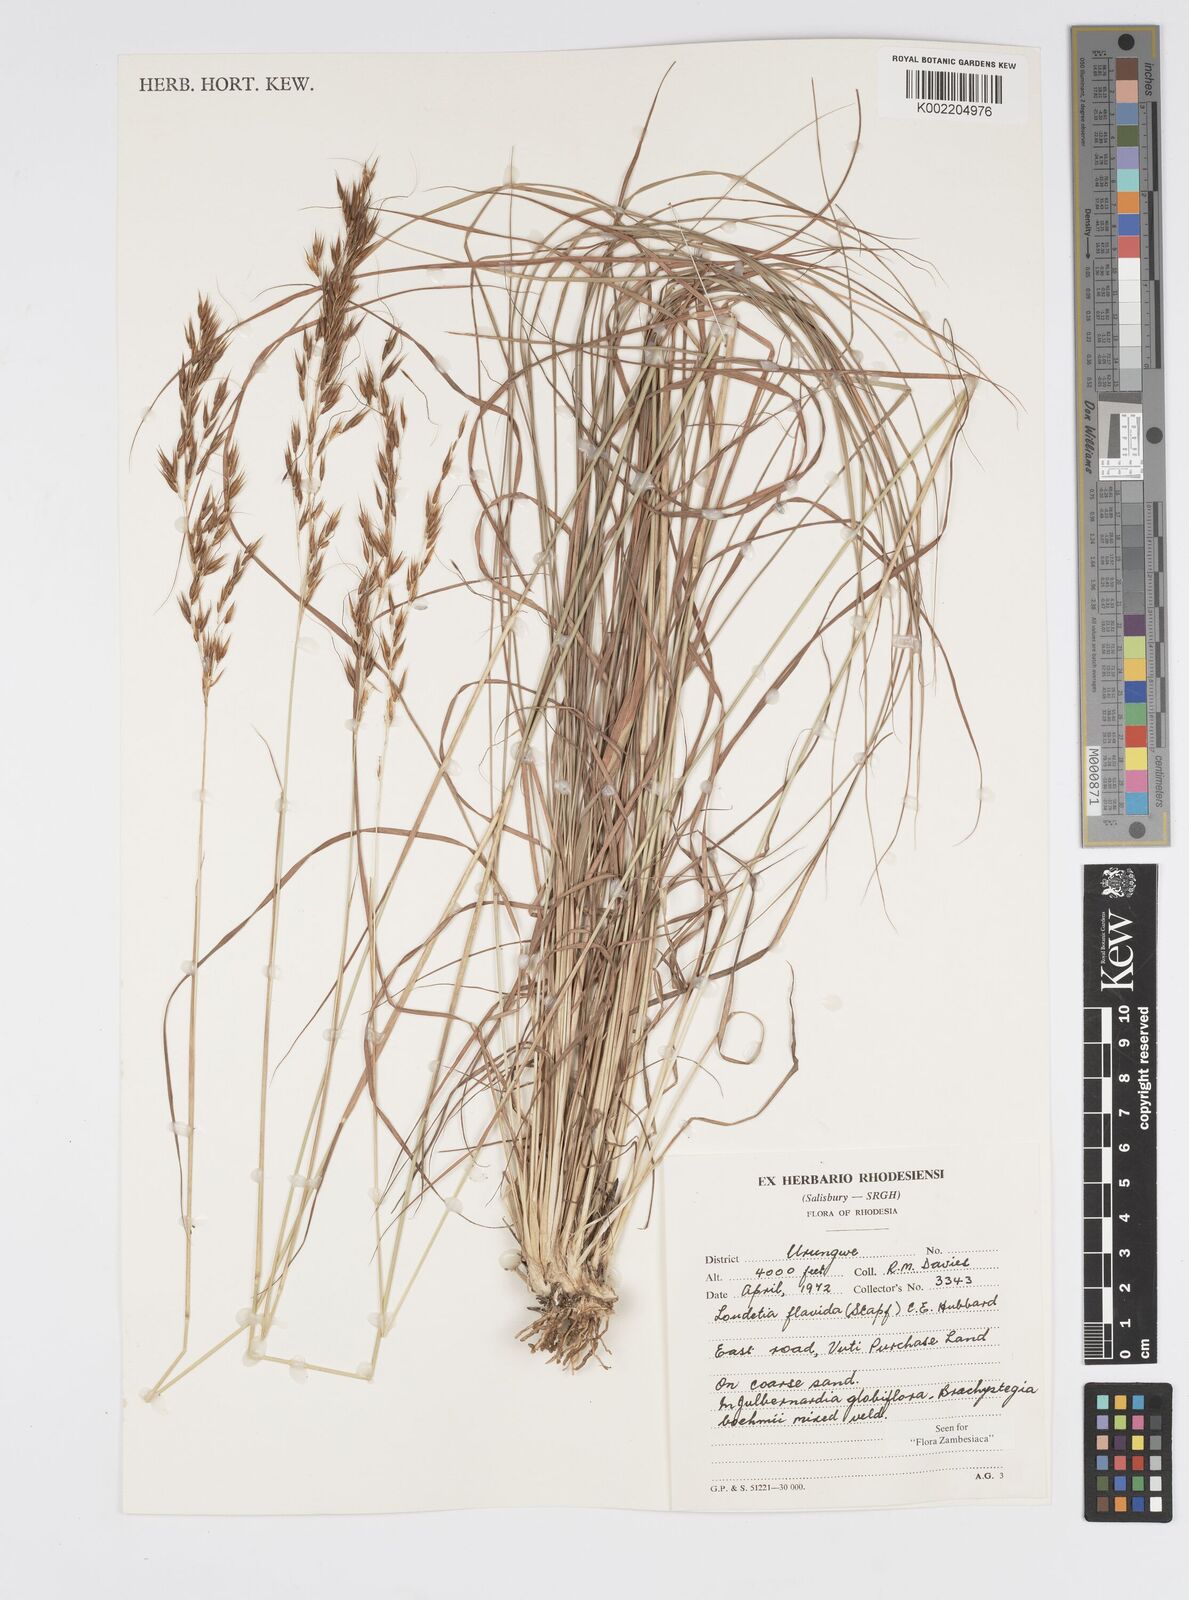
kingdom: Plantae
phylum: Tracheophyta
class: Liliopsida
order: Poales
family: Poaceae
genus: Loudetia
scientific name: Loudetia flavida
